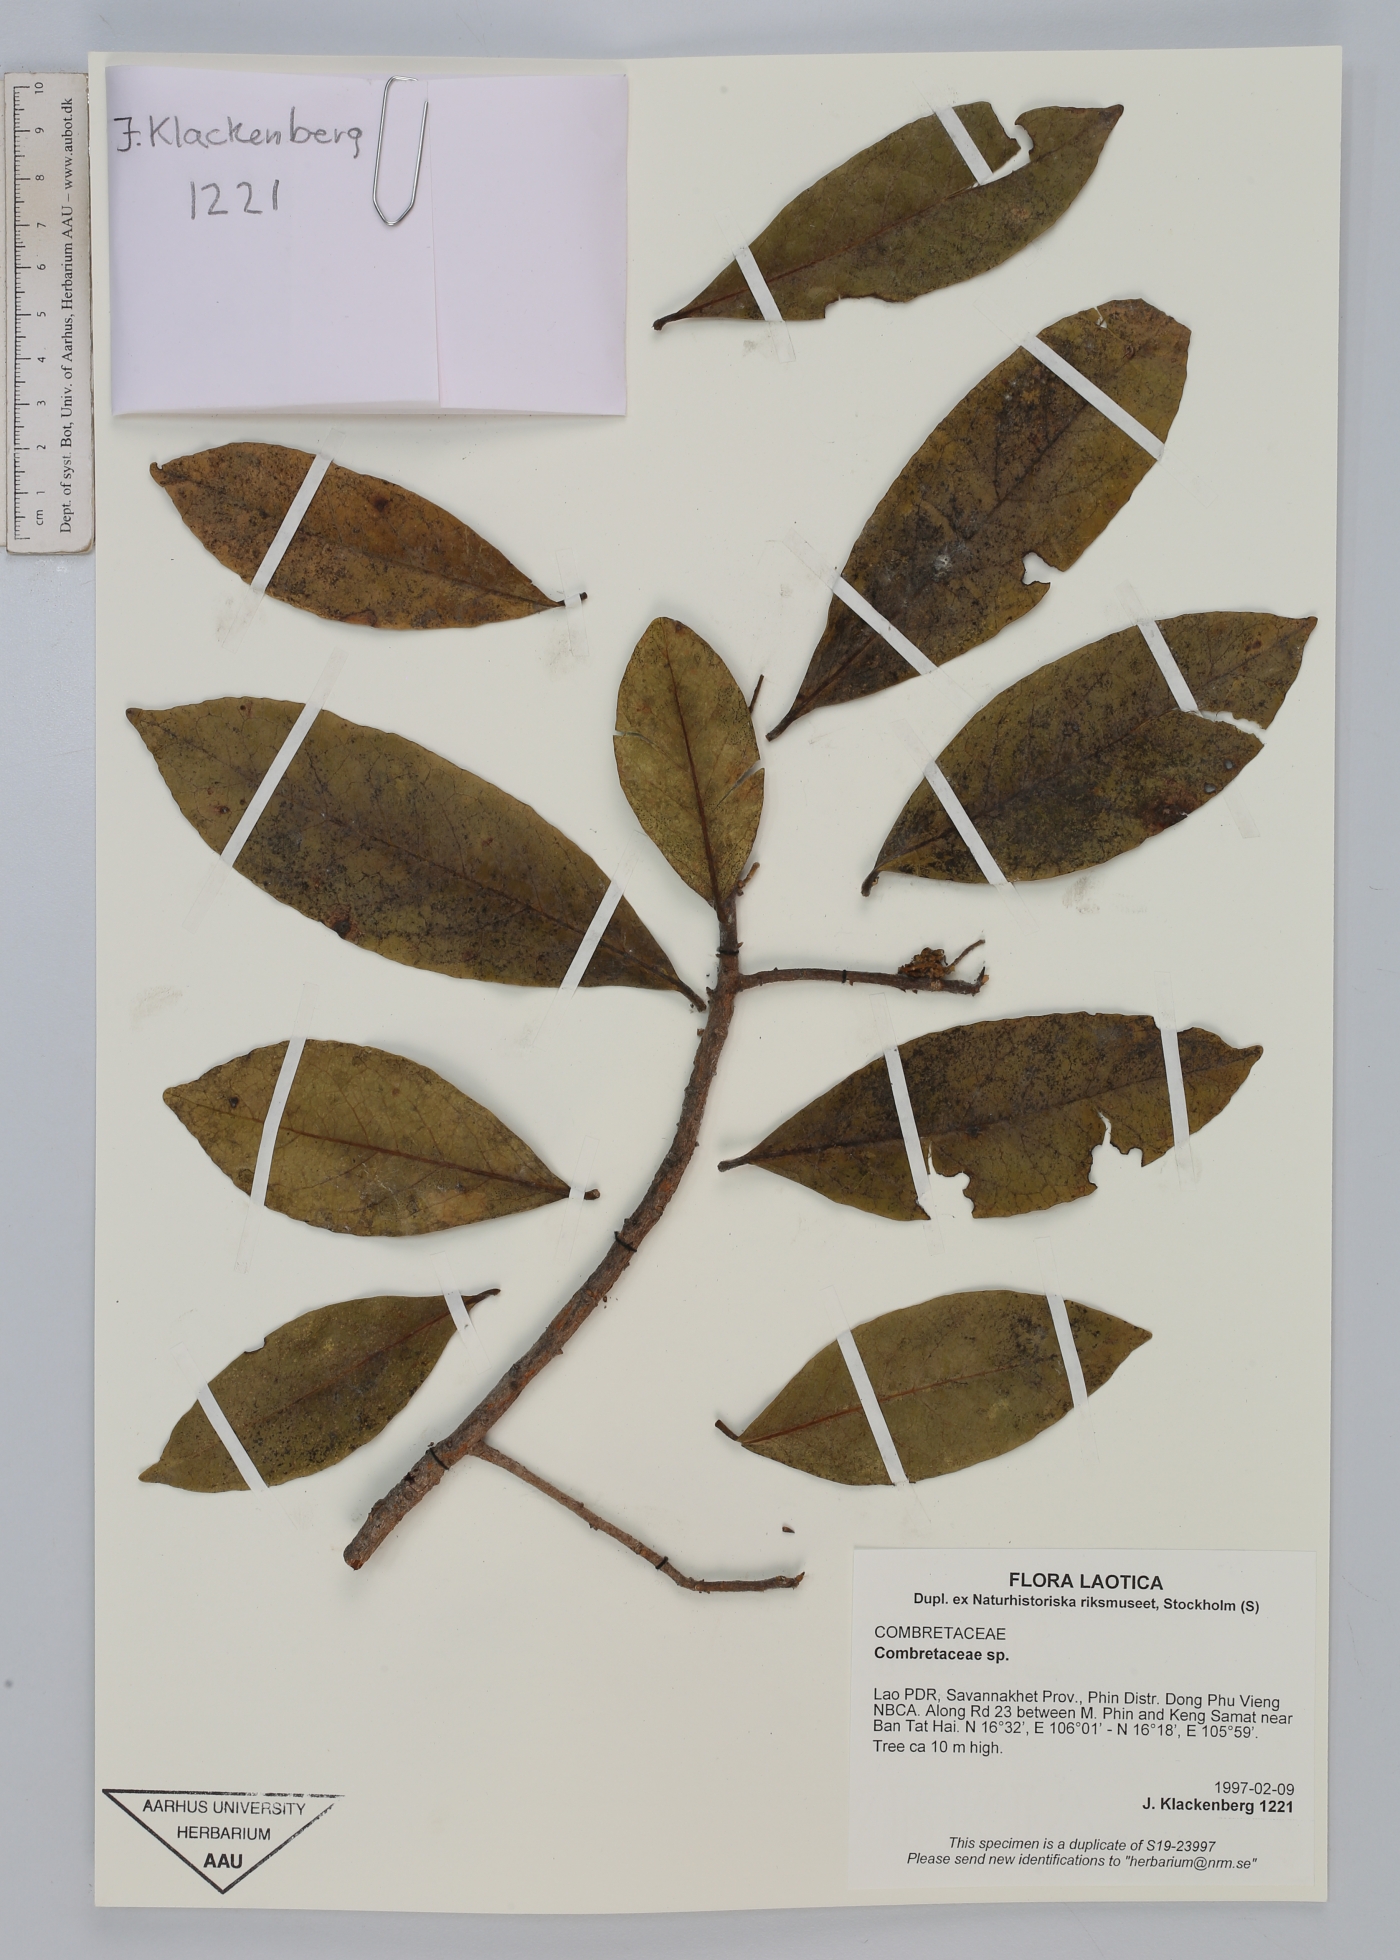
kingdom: Plantae
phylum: Tracheophyta
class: Magnoliopsida
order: Myrtales
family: Combretaceae
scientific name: Combretaceae
